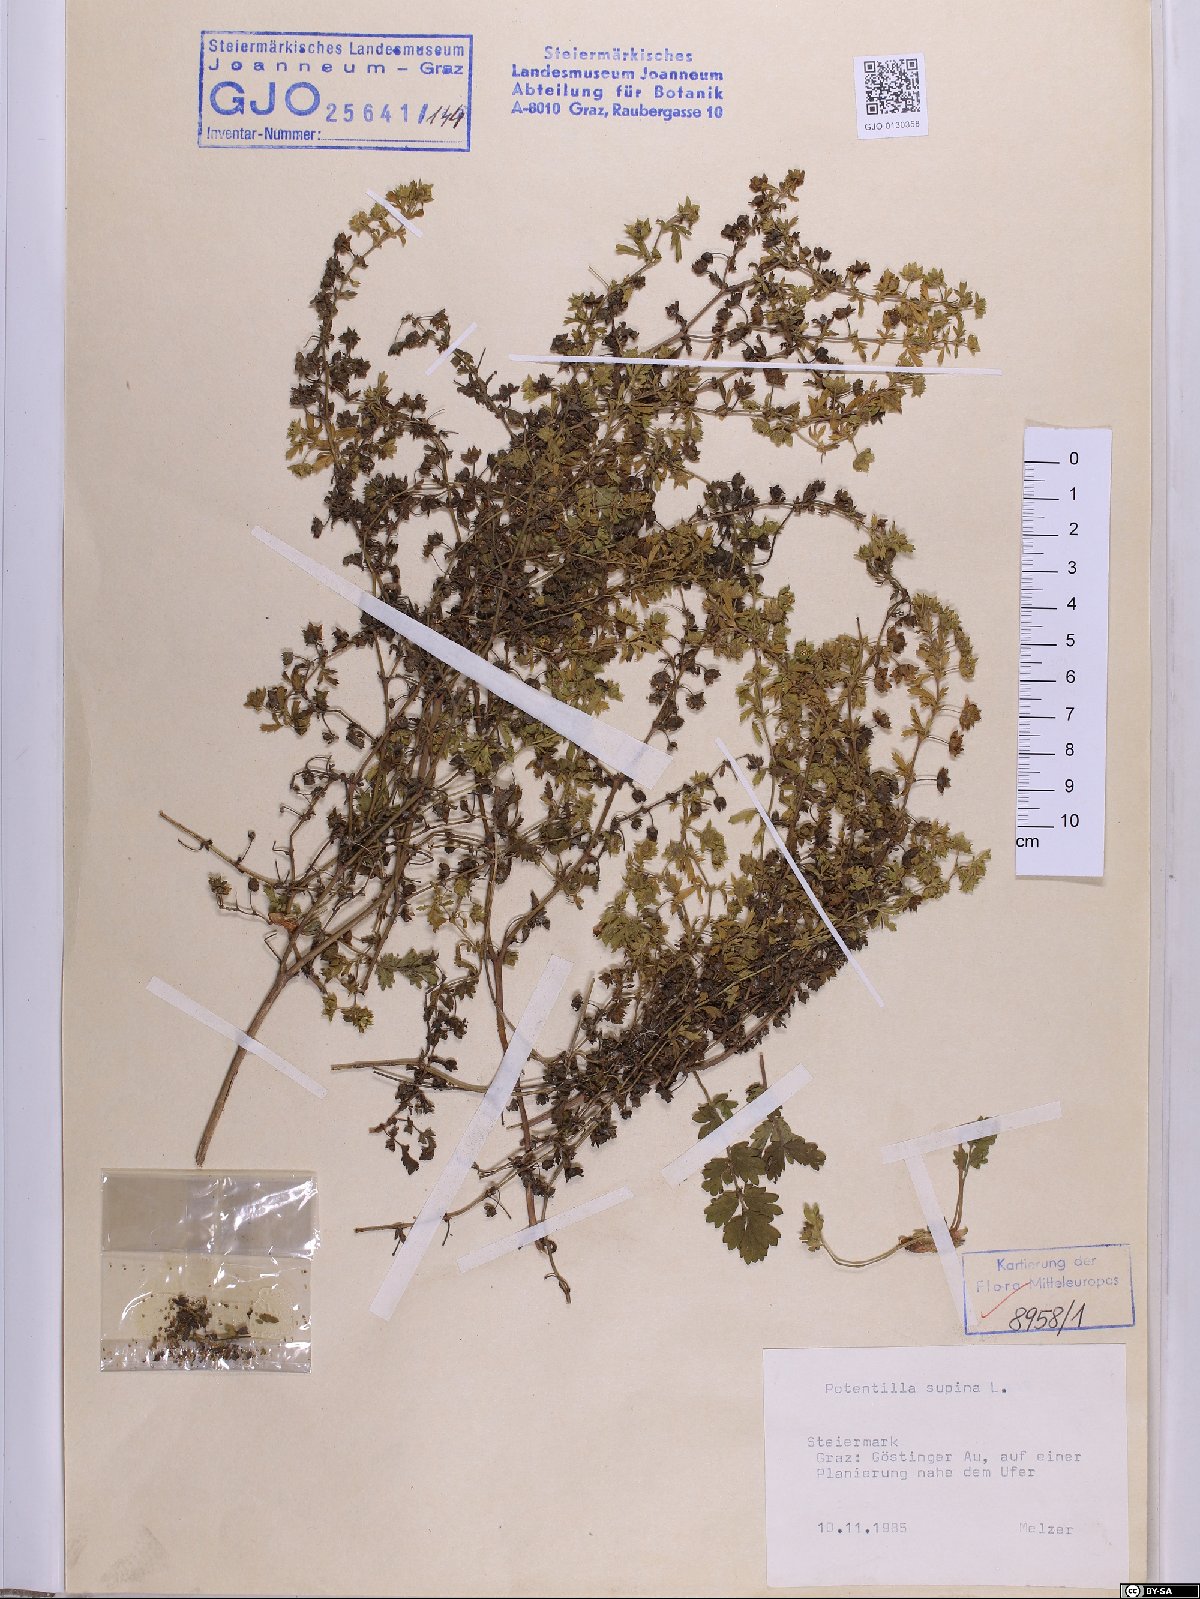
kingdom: Plantae
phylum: Tracheophyta
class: Magnoliopsida
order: Rosales
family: Rosaceae
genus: Potentilla
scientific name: Potentilla supina
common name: Prostrate cinquefoil
